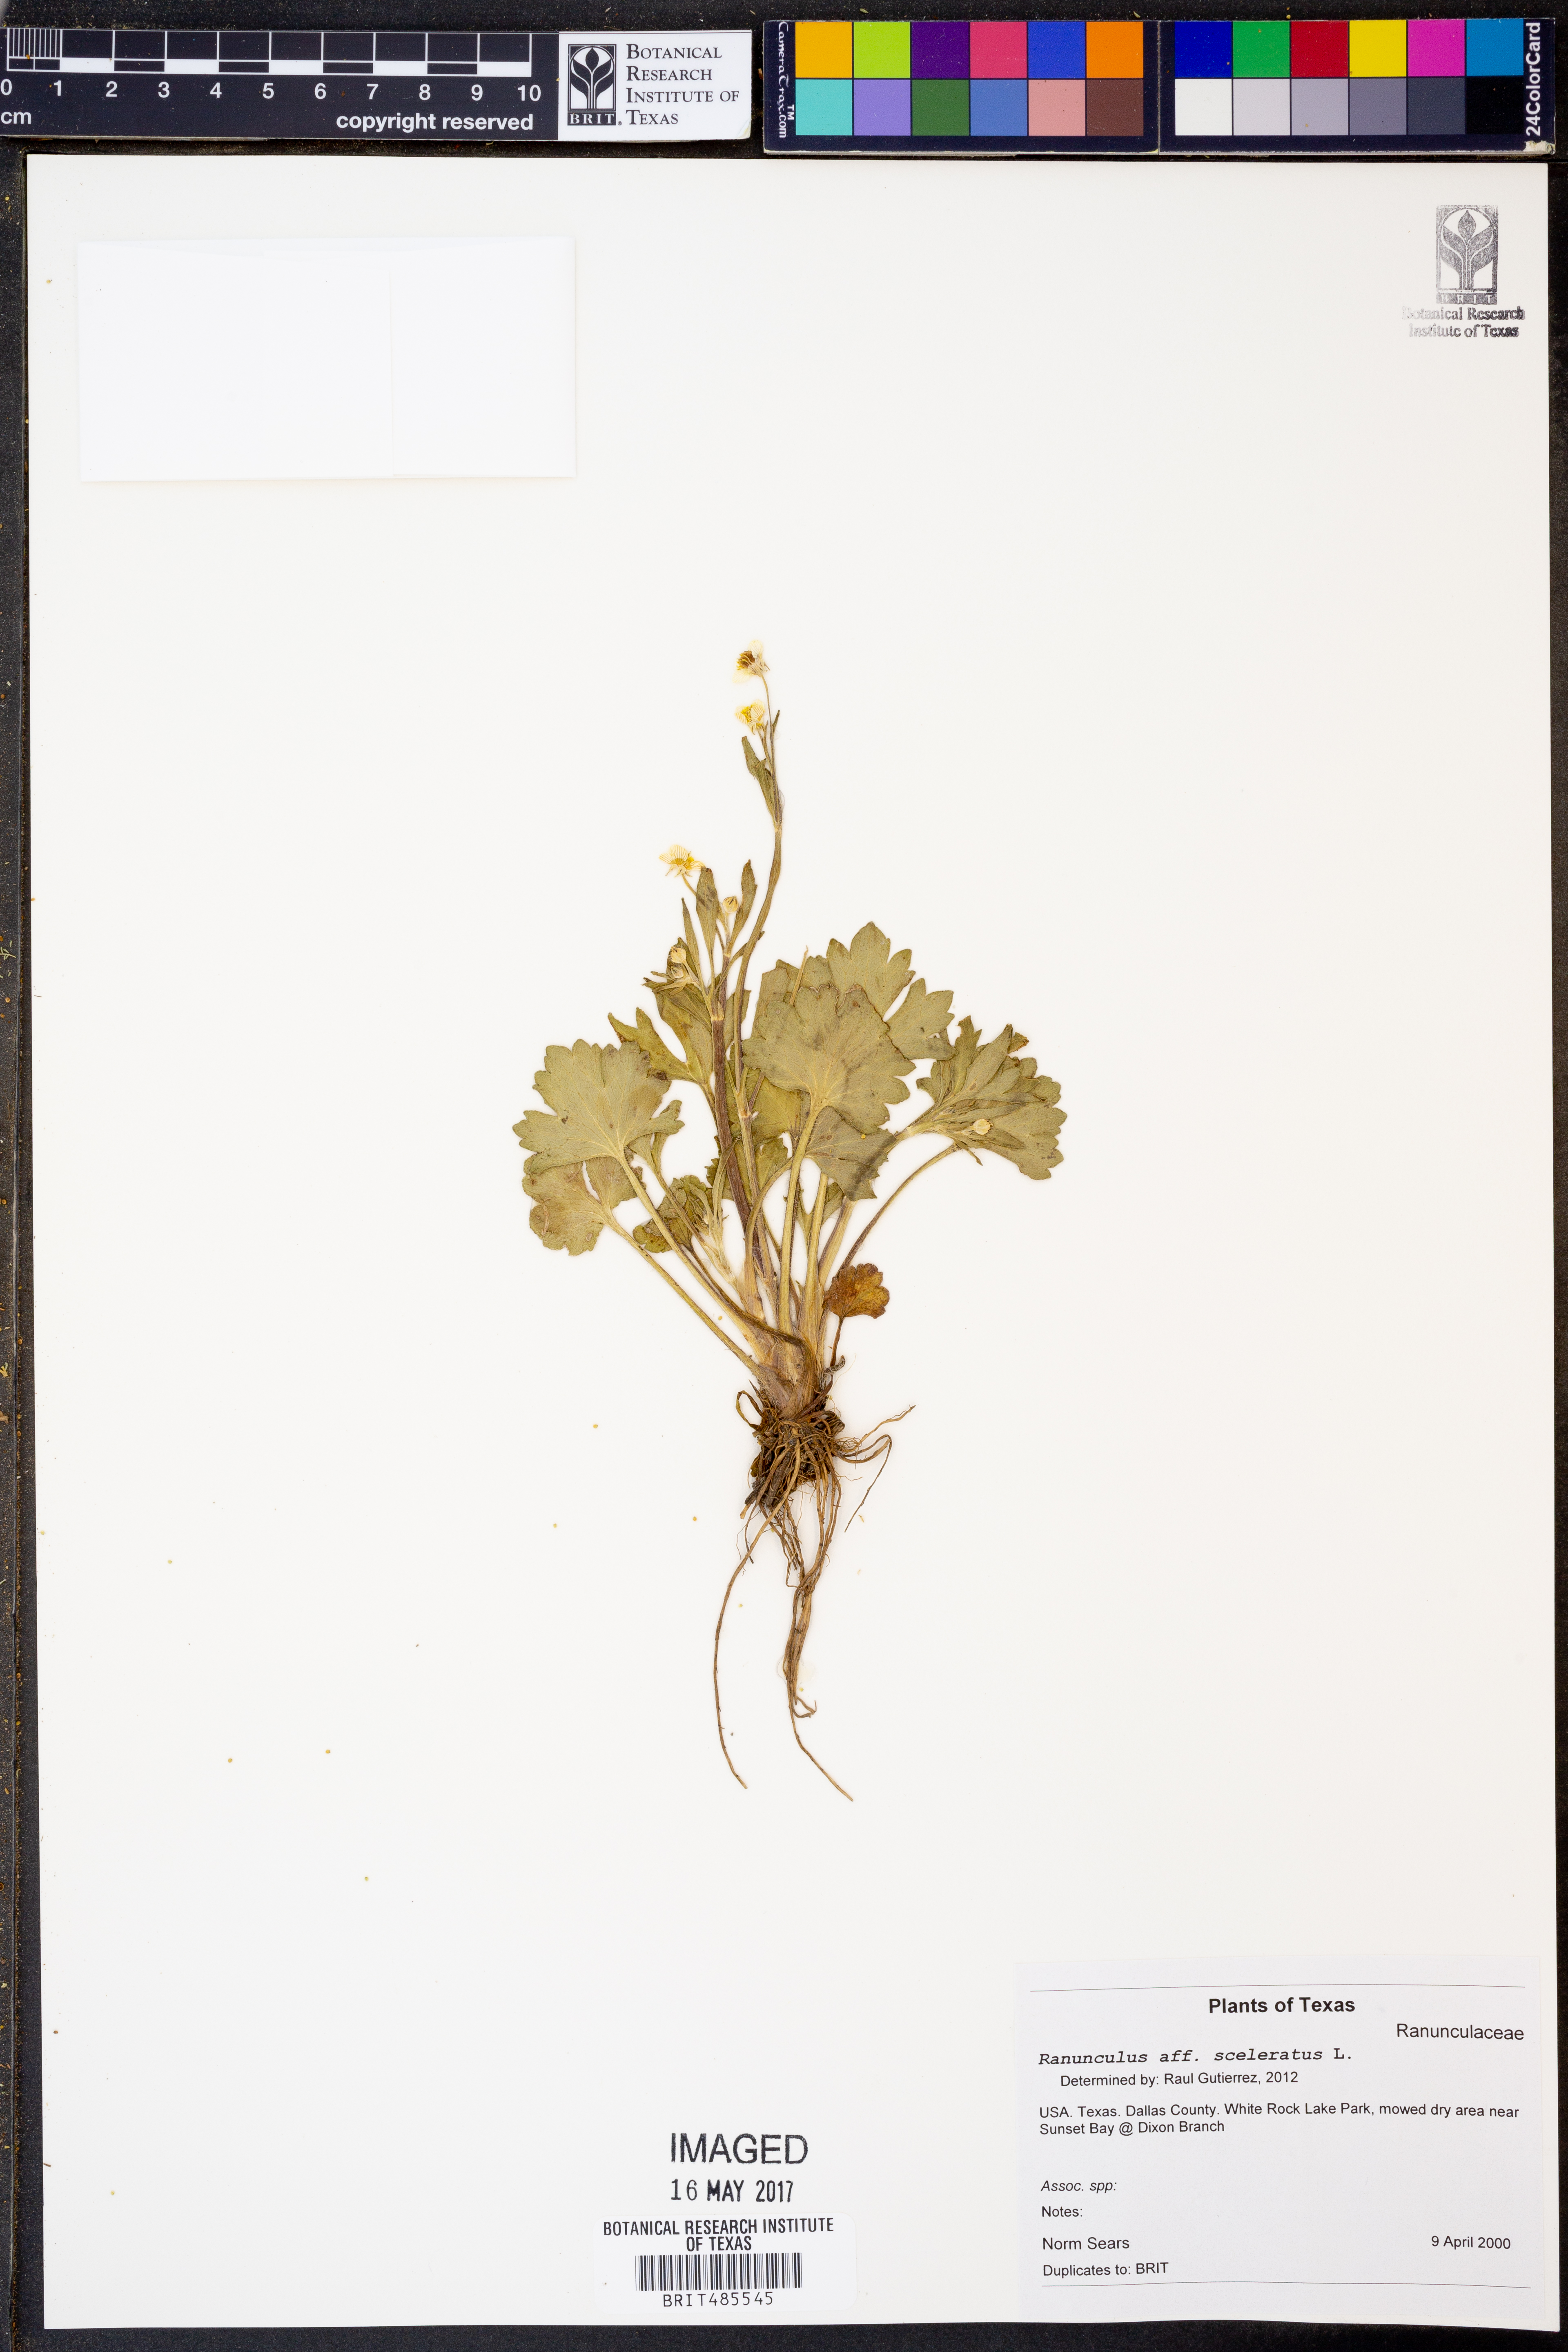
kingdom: Plantae
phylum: Tracheophyta
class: Magnoliopsida
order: Ranunculales
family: Ranunculaceae
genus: Ranunculus
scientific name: Ranunculus sceleratus
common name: Celery-leaved buttercup
